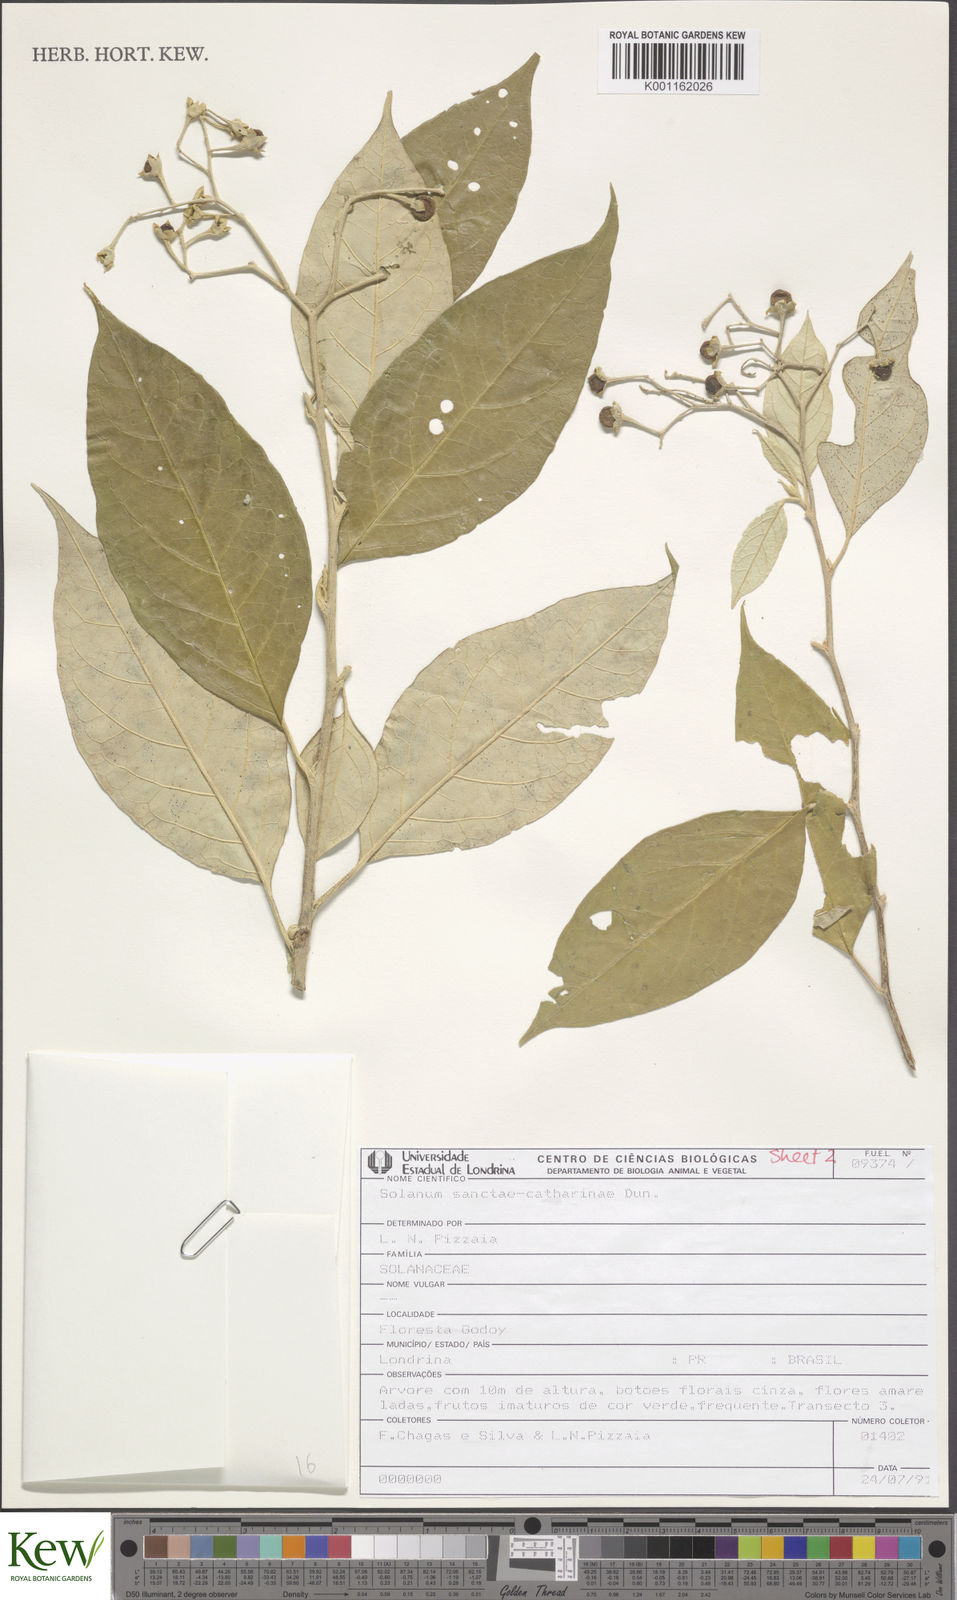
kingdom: Plantae
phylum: Tracheophyta
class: Magnoliopsida
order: Solanales
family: Solanaceae
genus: Solanum
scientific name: Solanum sanctae-catharinae
